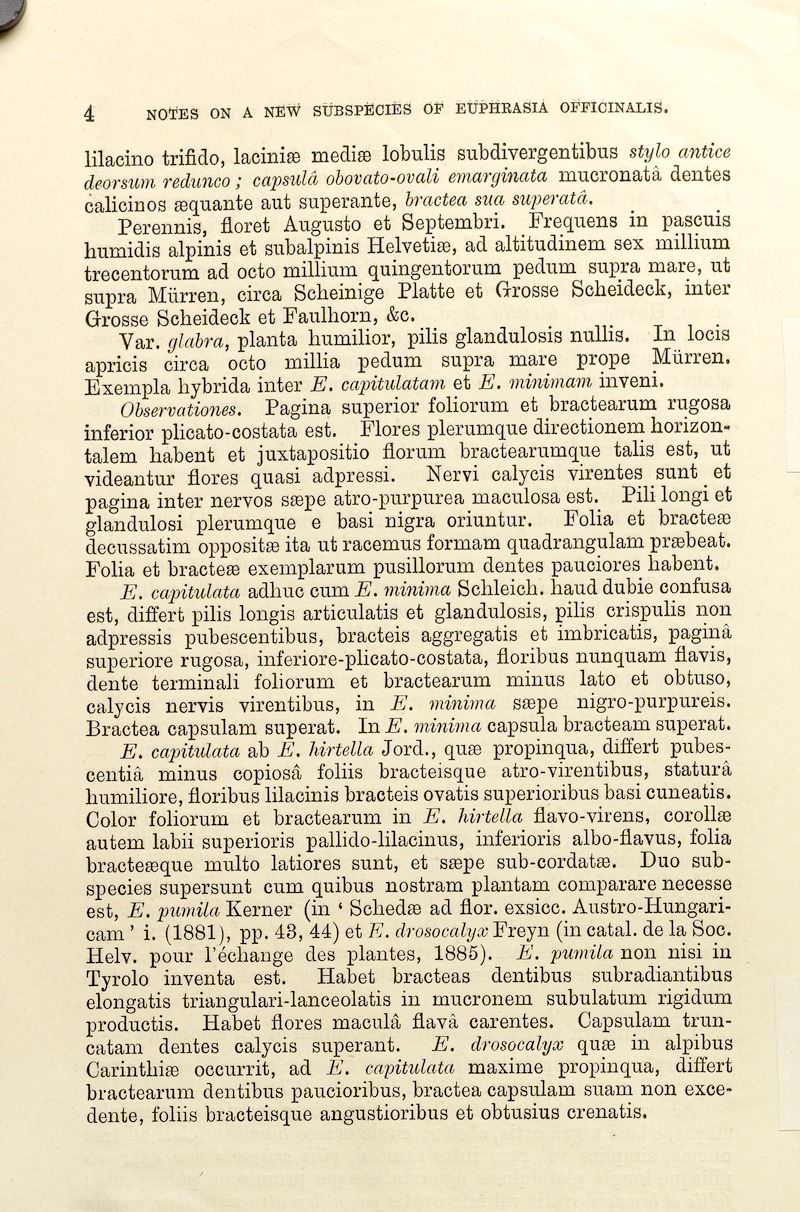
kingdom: Plantae
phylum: Tracheophyta
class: Magnoliopsida
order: Lamiales
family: Orobanchaceae
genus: Euphrasia
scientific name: Euphrasia drosocalyx
